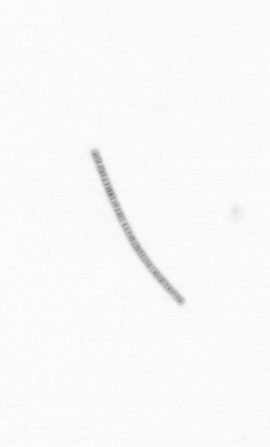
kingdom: Chromista
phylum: Ochrophyta
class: Bacillariophyceae
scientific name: Bacillariophyceae
